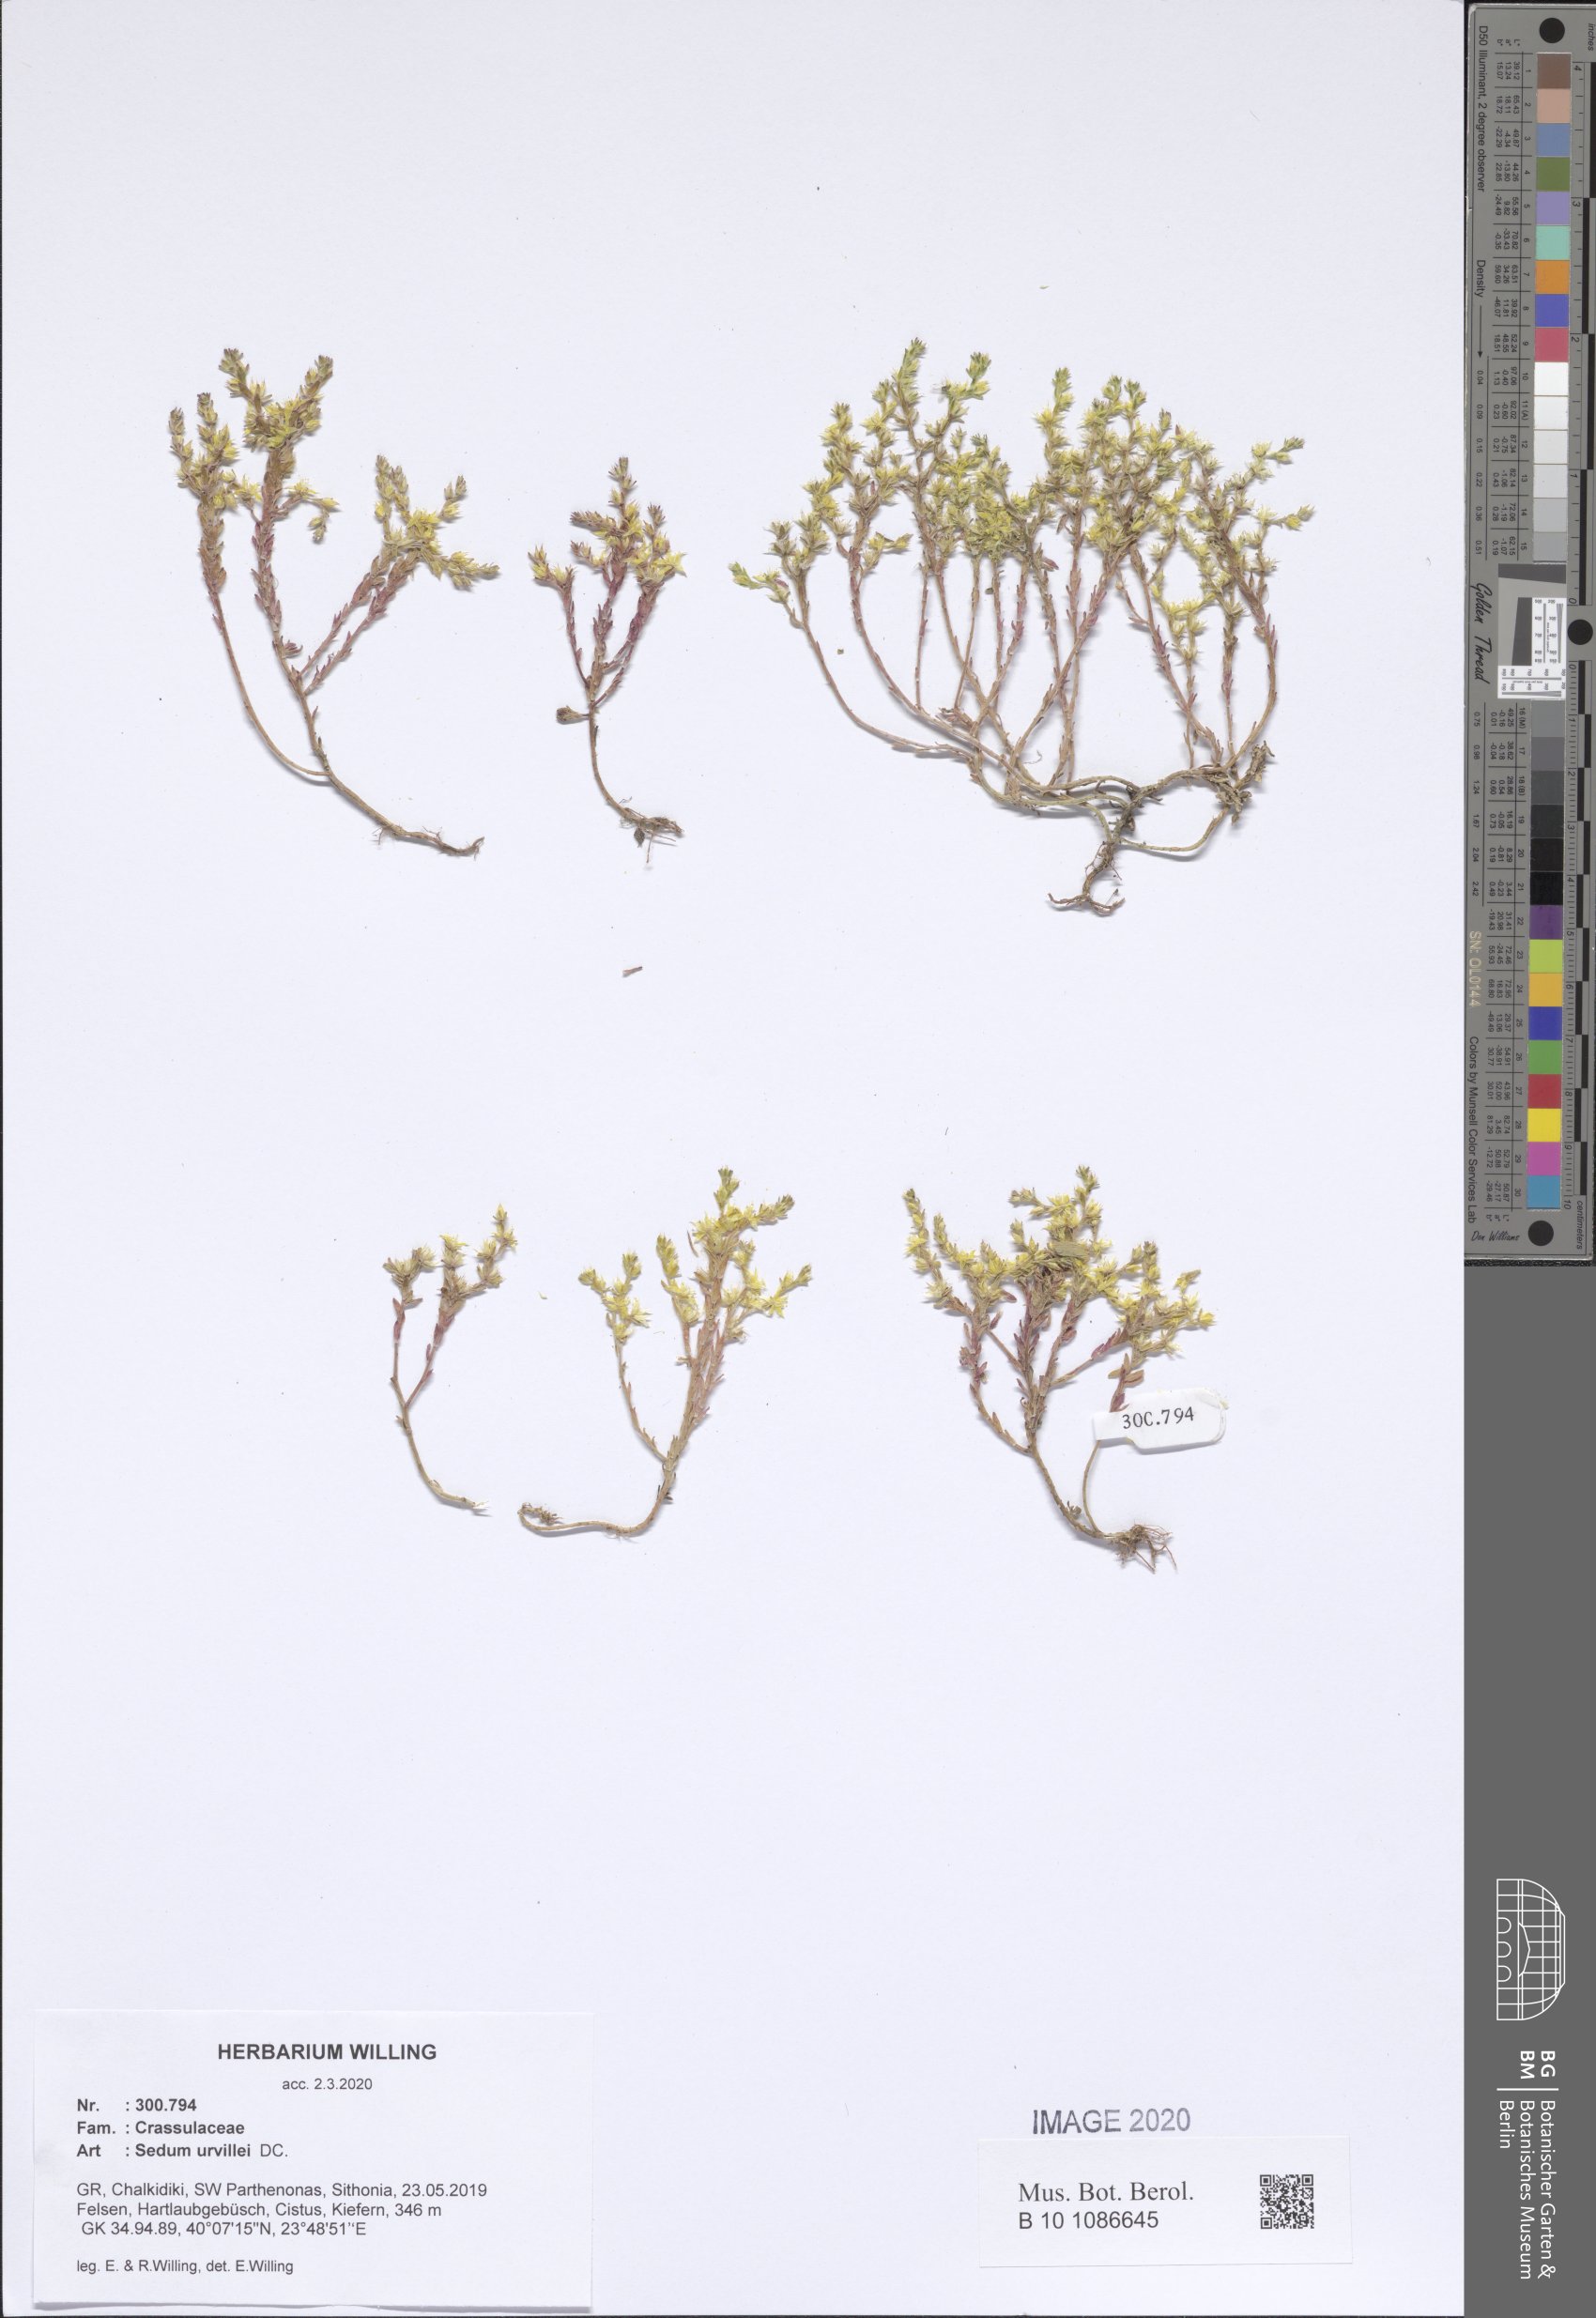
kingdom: Plantae
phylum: Tracheophyta
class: Magnoliopsida
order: Saxifragales
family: Crassulaceae
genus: Sedum
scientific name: Sedum urvillei
